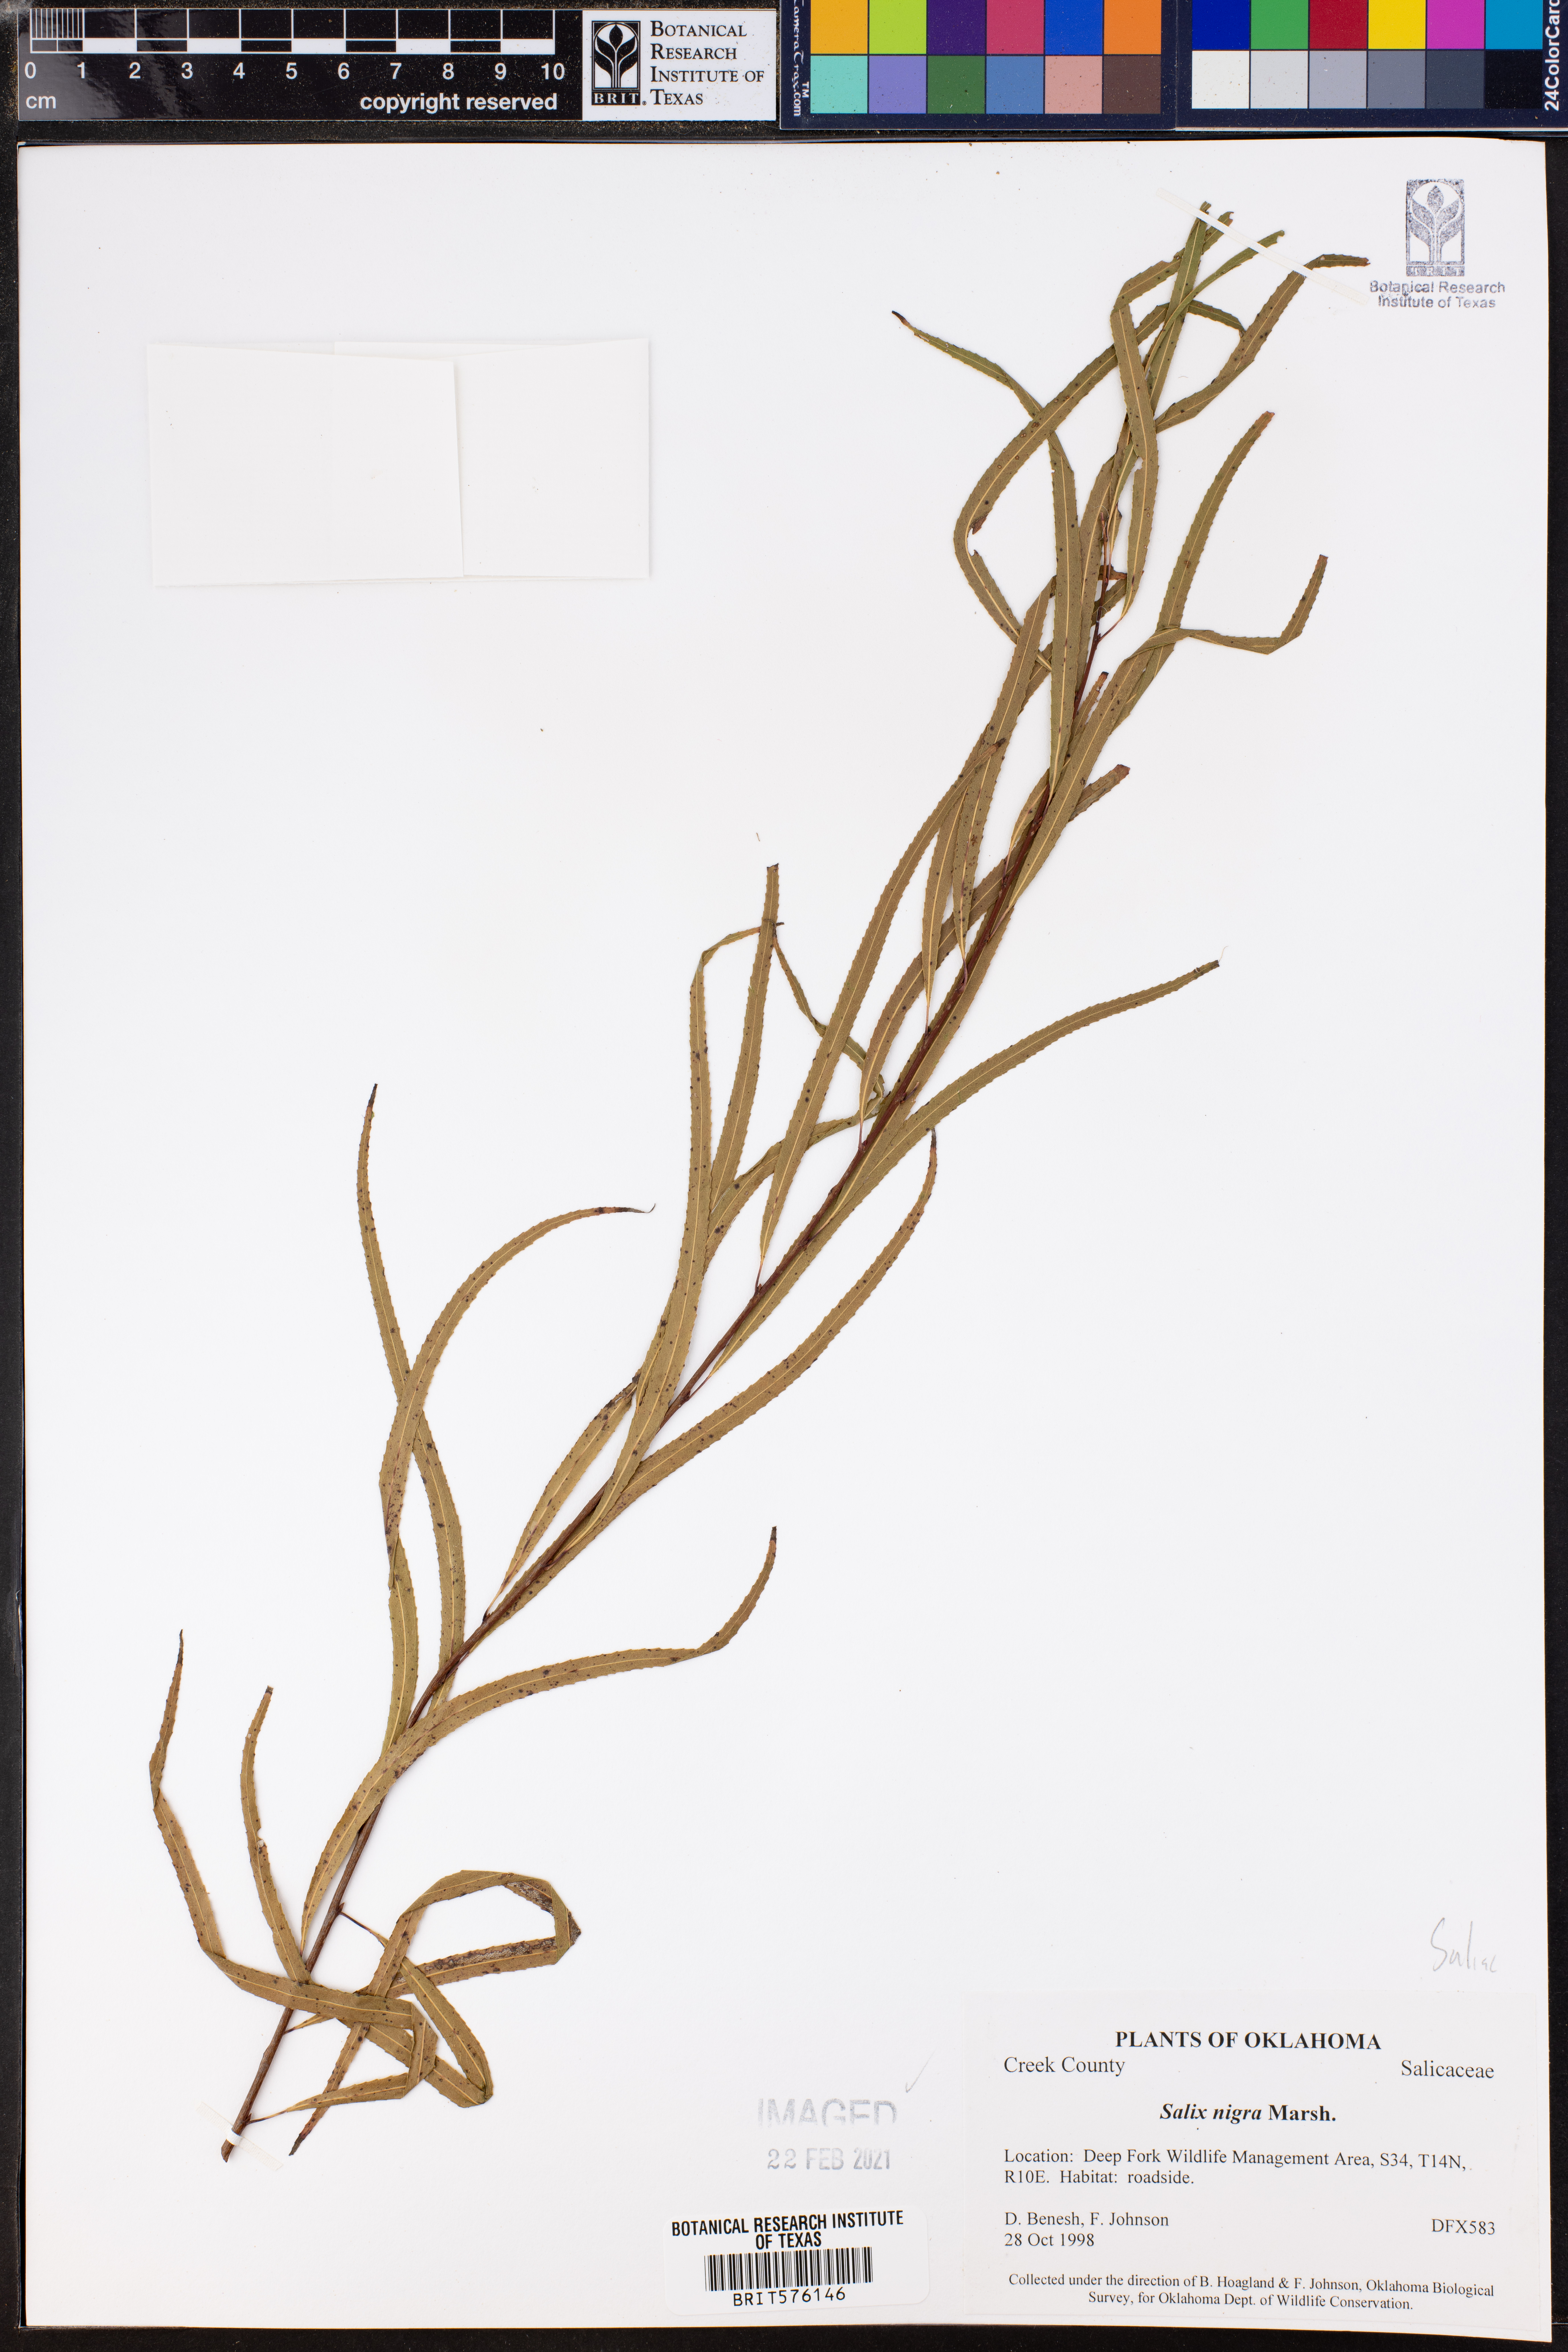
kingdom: Plantae
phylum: Tracheophyta
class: Magnoliopsida
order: Malpighiales
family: Salicaceae
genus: Salix
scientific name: Salix nigra
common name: Black willow
